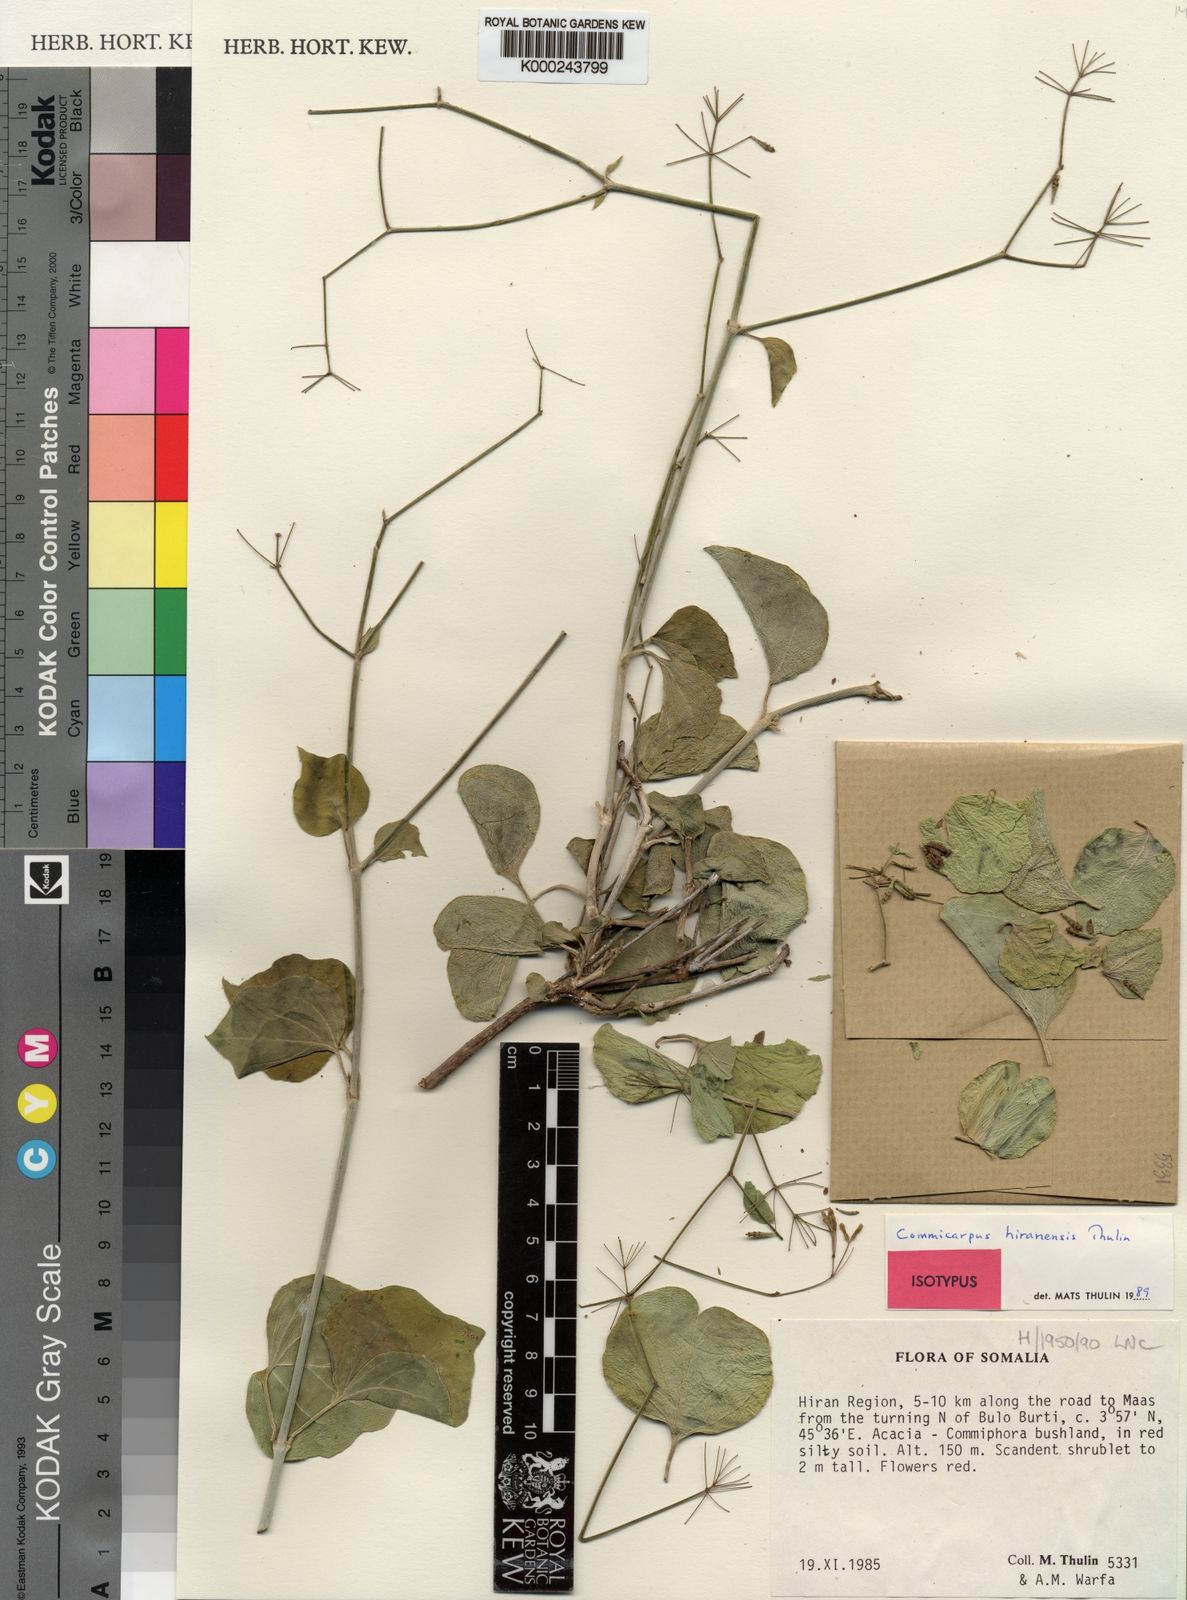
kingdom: Plantae
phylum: Tracheophyta
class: Magnoliopsida
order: Caryophyllales
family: Nyctaginaceae
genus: Commicarpus
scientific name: Commicarpus hiranensis
